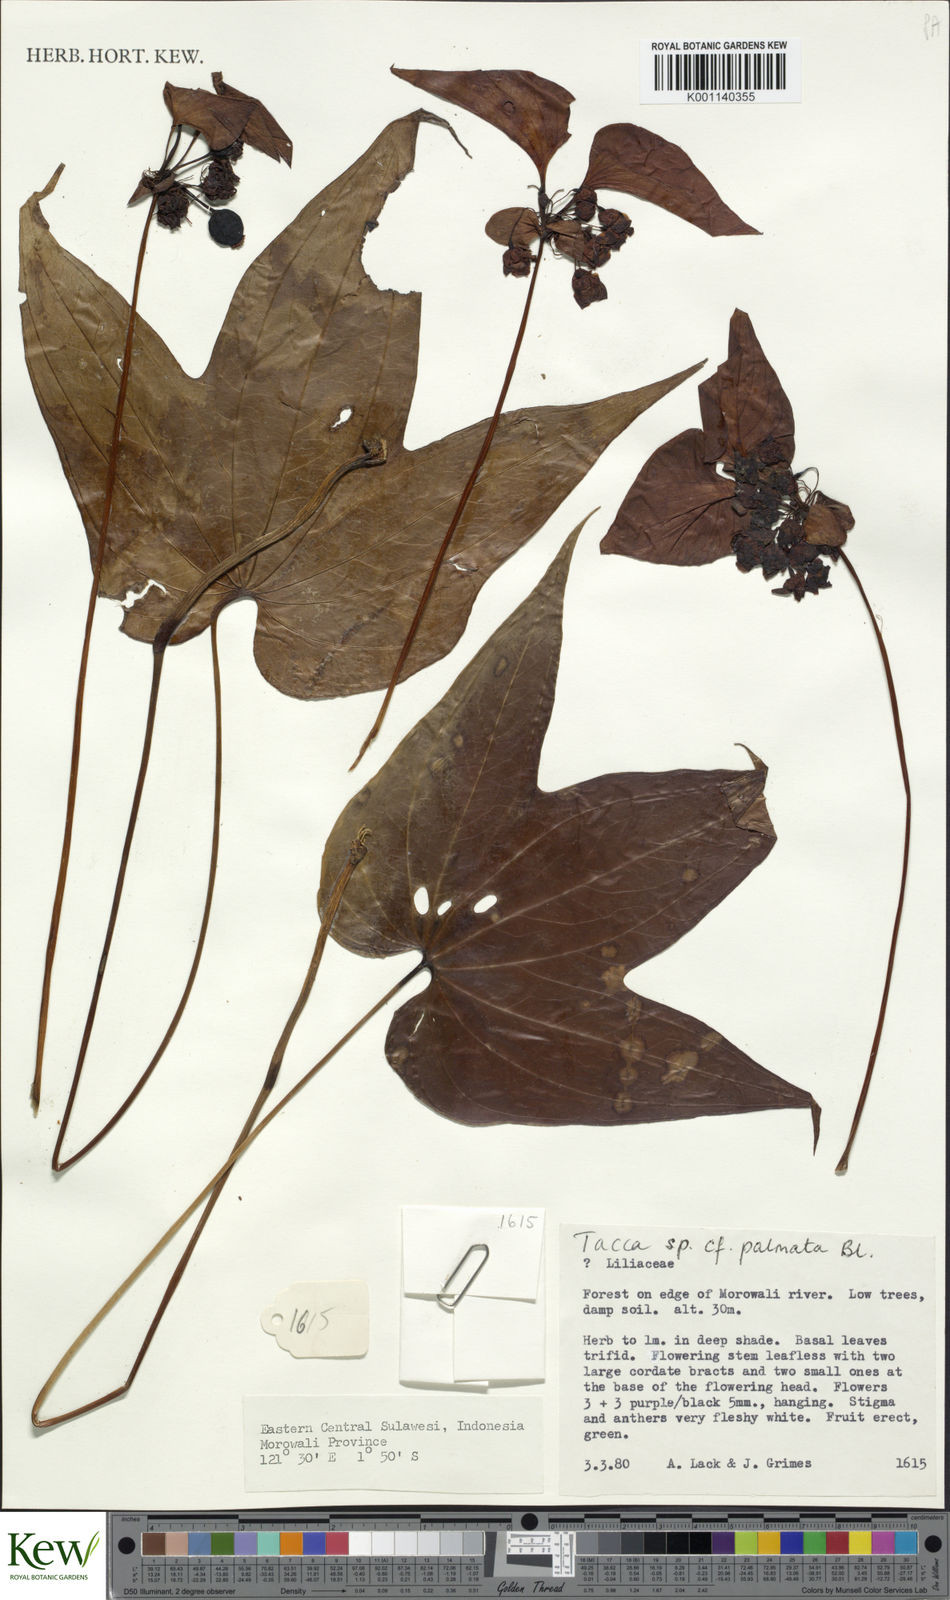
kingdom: Plantae
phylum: Tracheophyta
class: Liliopsida
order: Dioscoreales
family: Dioscoreaceae
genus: Tacca
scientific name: Tacca palmata
